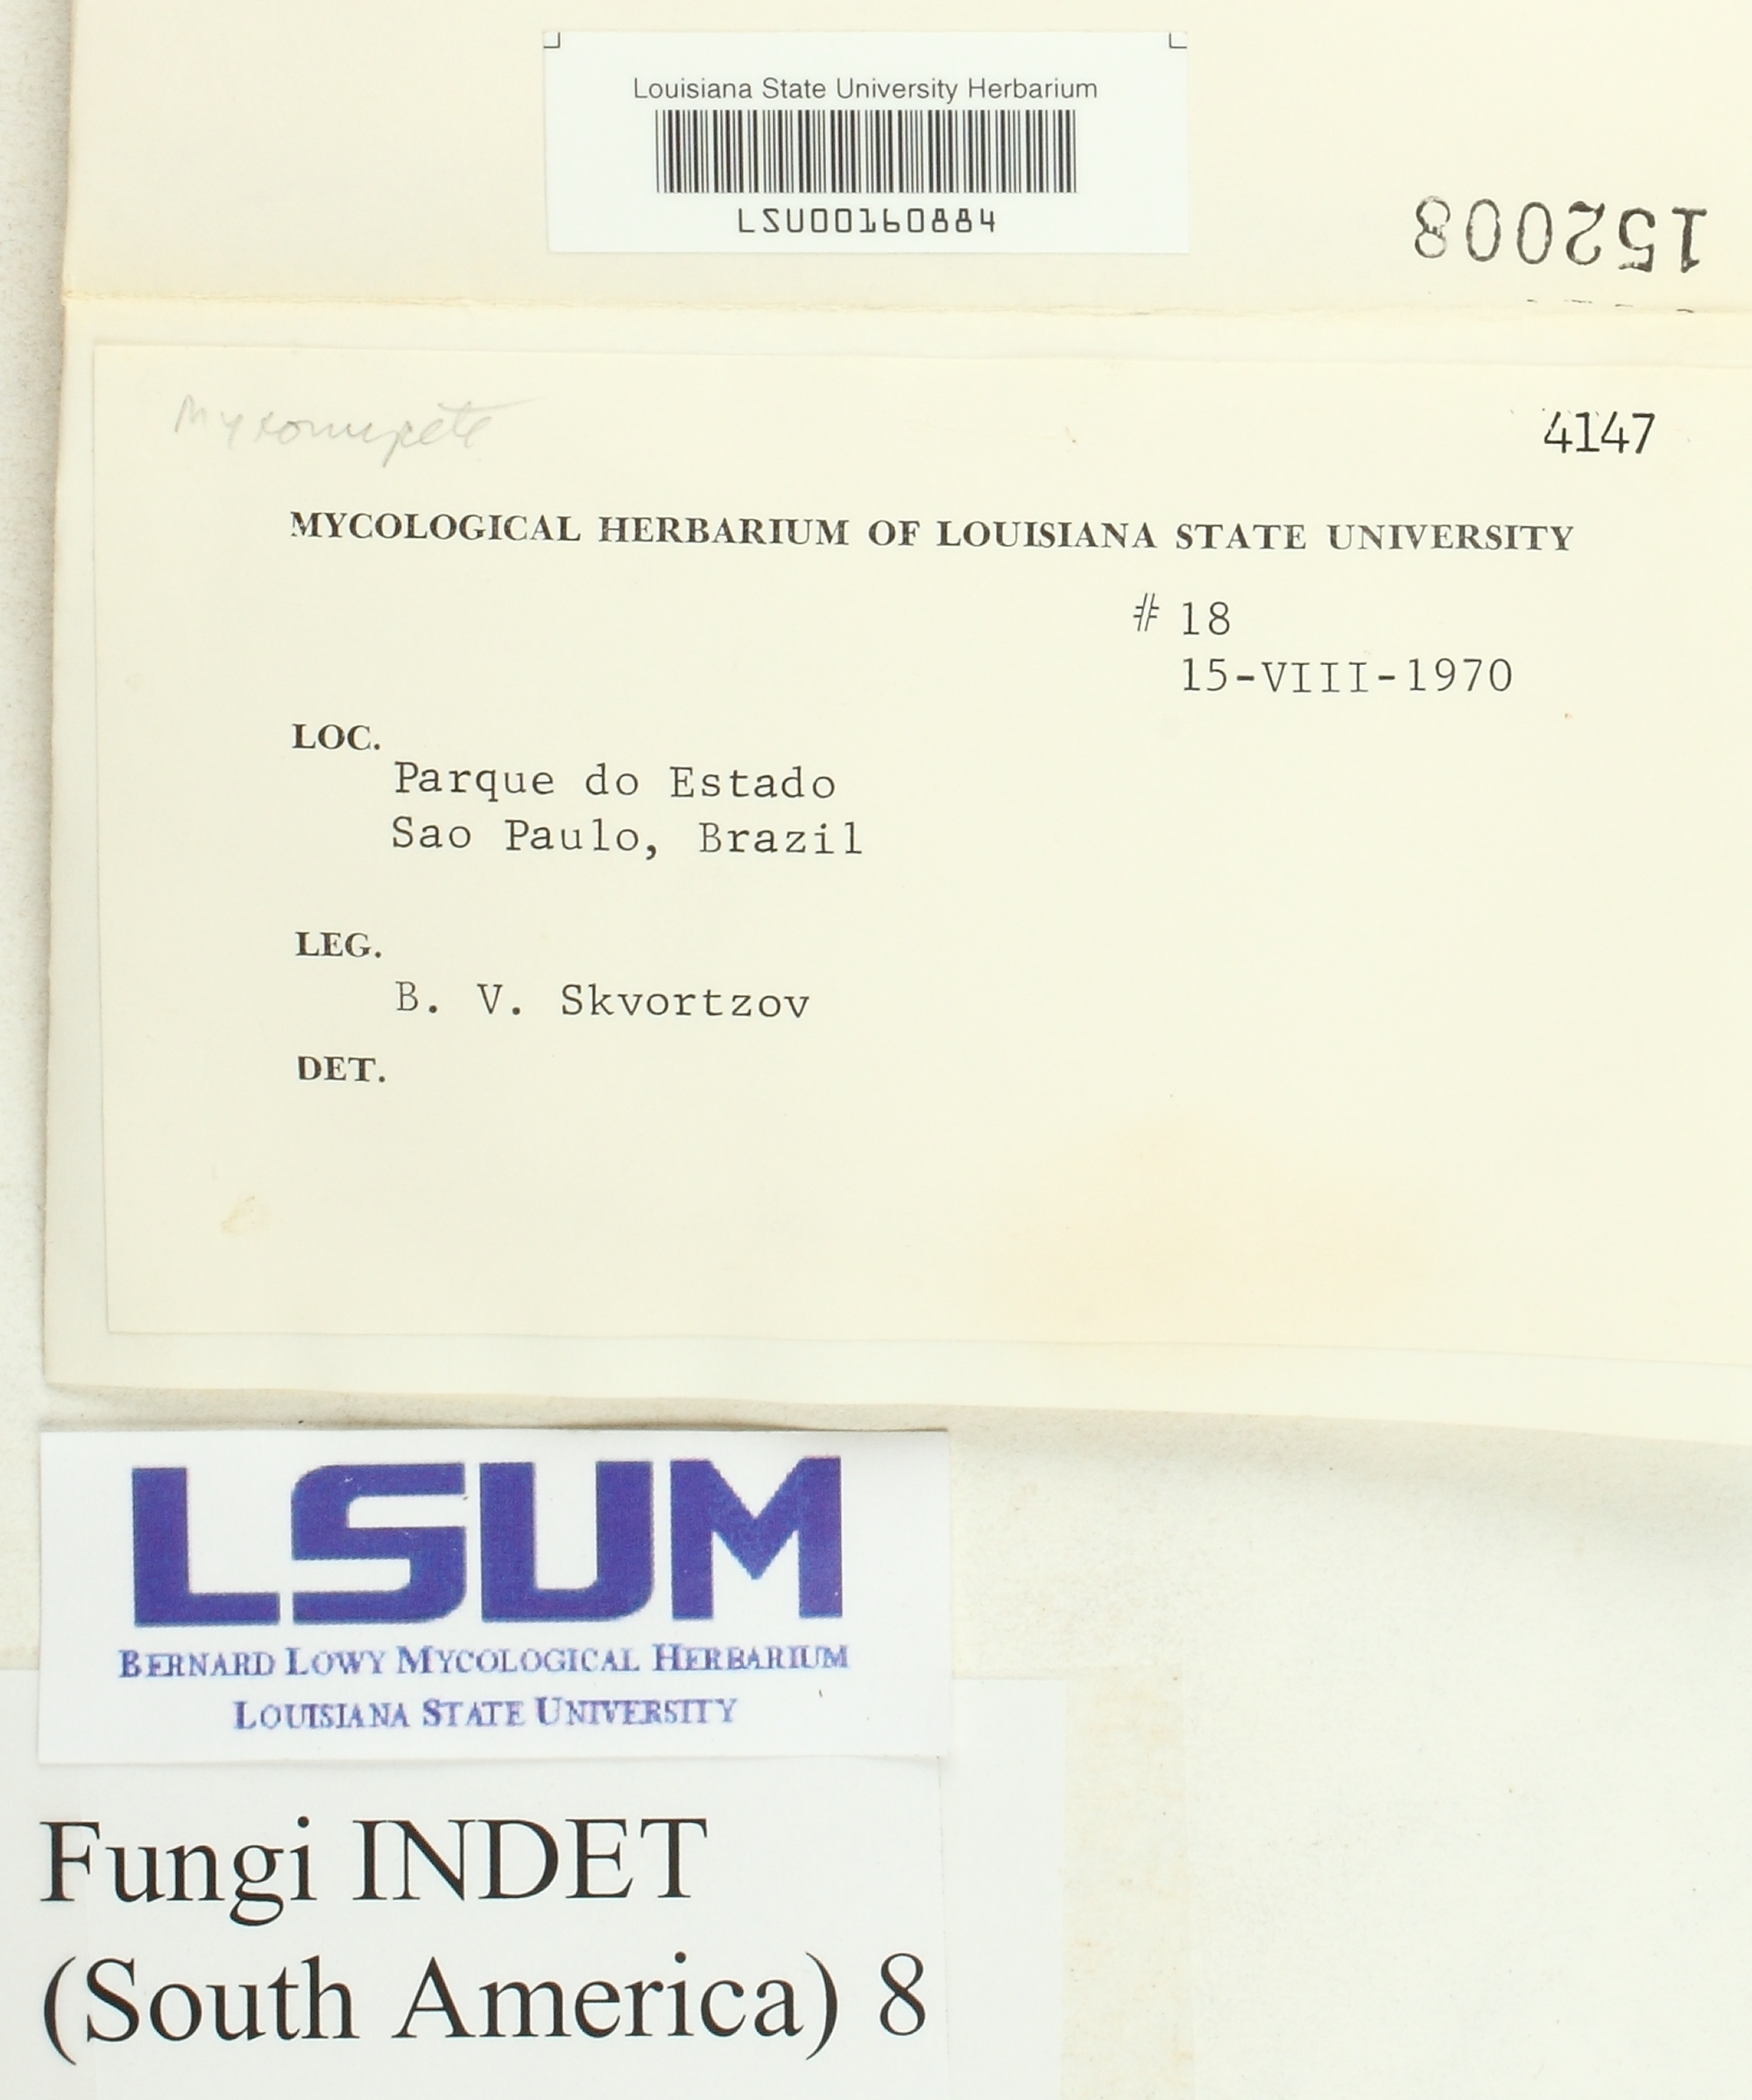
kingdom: Fungi
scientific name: Fungi
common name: Fungi
